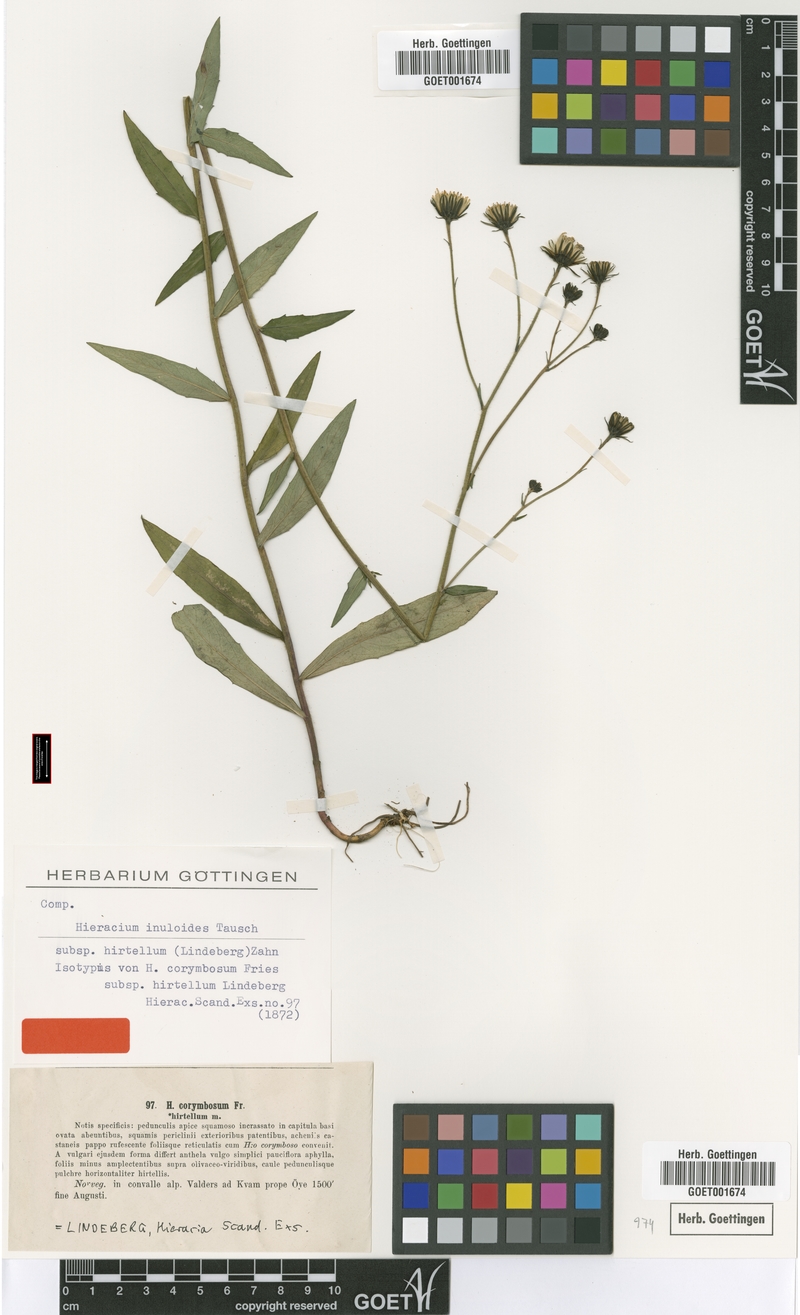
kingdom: Plantae
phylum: Tracheophyta
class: Magnoliopsida
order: Asterales
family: Asteraceae
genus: Hieracium
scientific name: Hieracium hirtellum
